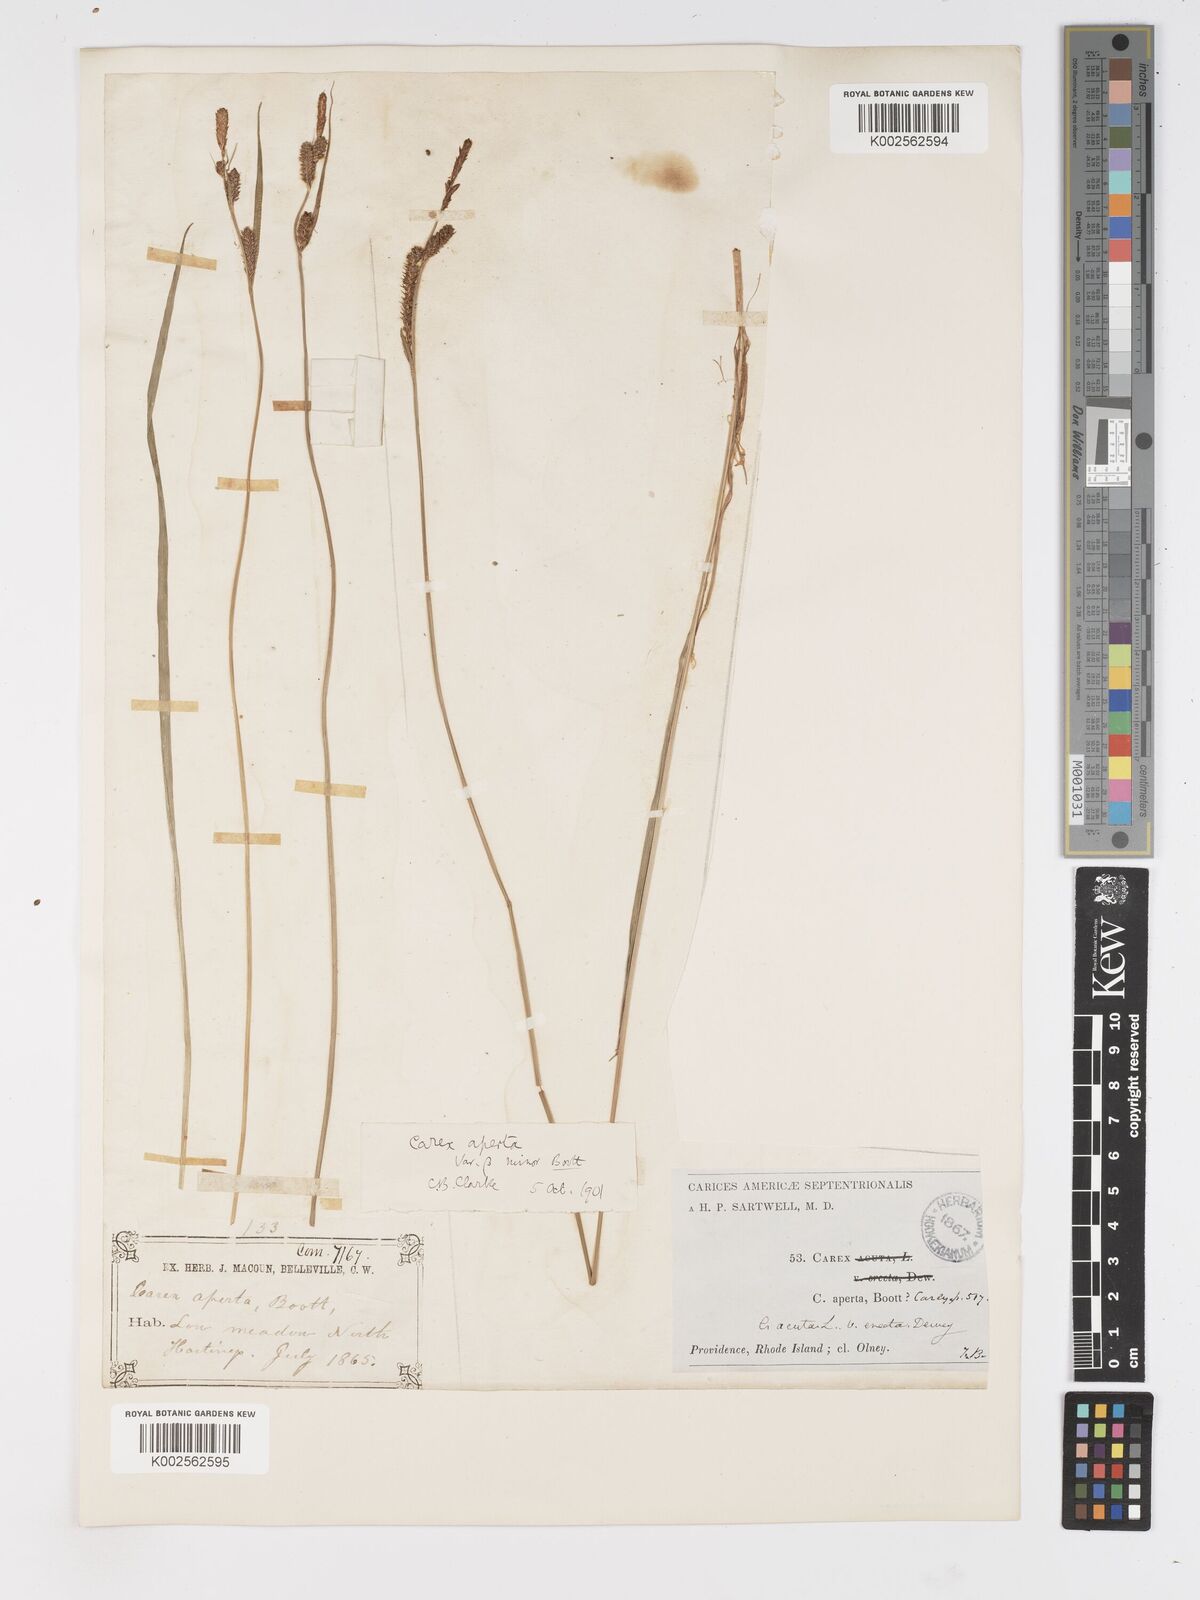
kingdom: Plantae
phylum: Tracheophyta
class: Liliopsida
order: Poales
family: Cyperaceae
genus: Carex
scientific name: Carex haydenii
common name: Hayden's sedge
